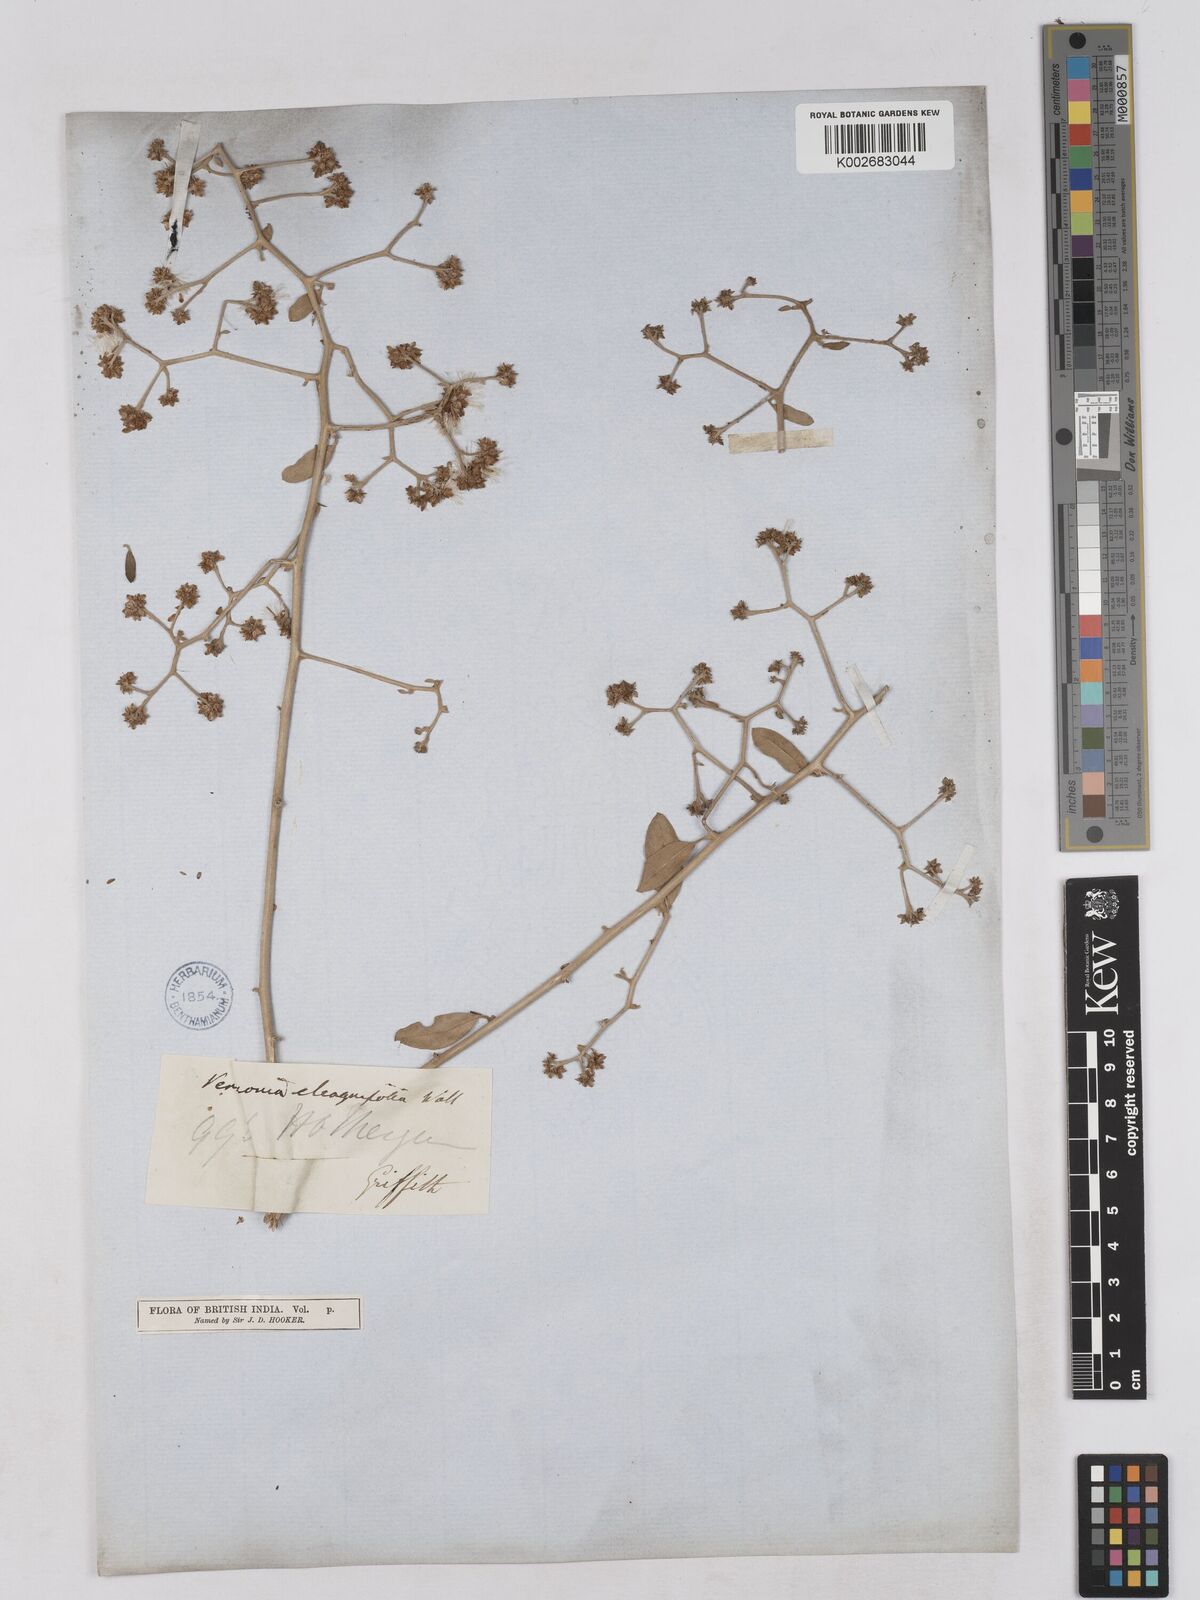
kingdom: Plantae
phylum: Tracheophyta
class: Magnoliopsida
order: Asterales
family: Asteraceae
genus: Tarlmounia
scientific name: Tarlmounia elliptica
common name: Kheua sa lot
